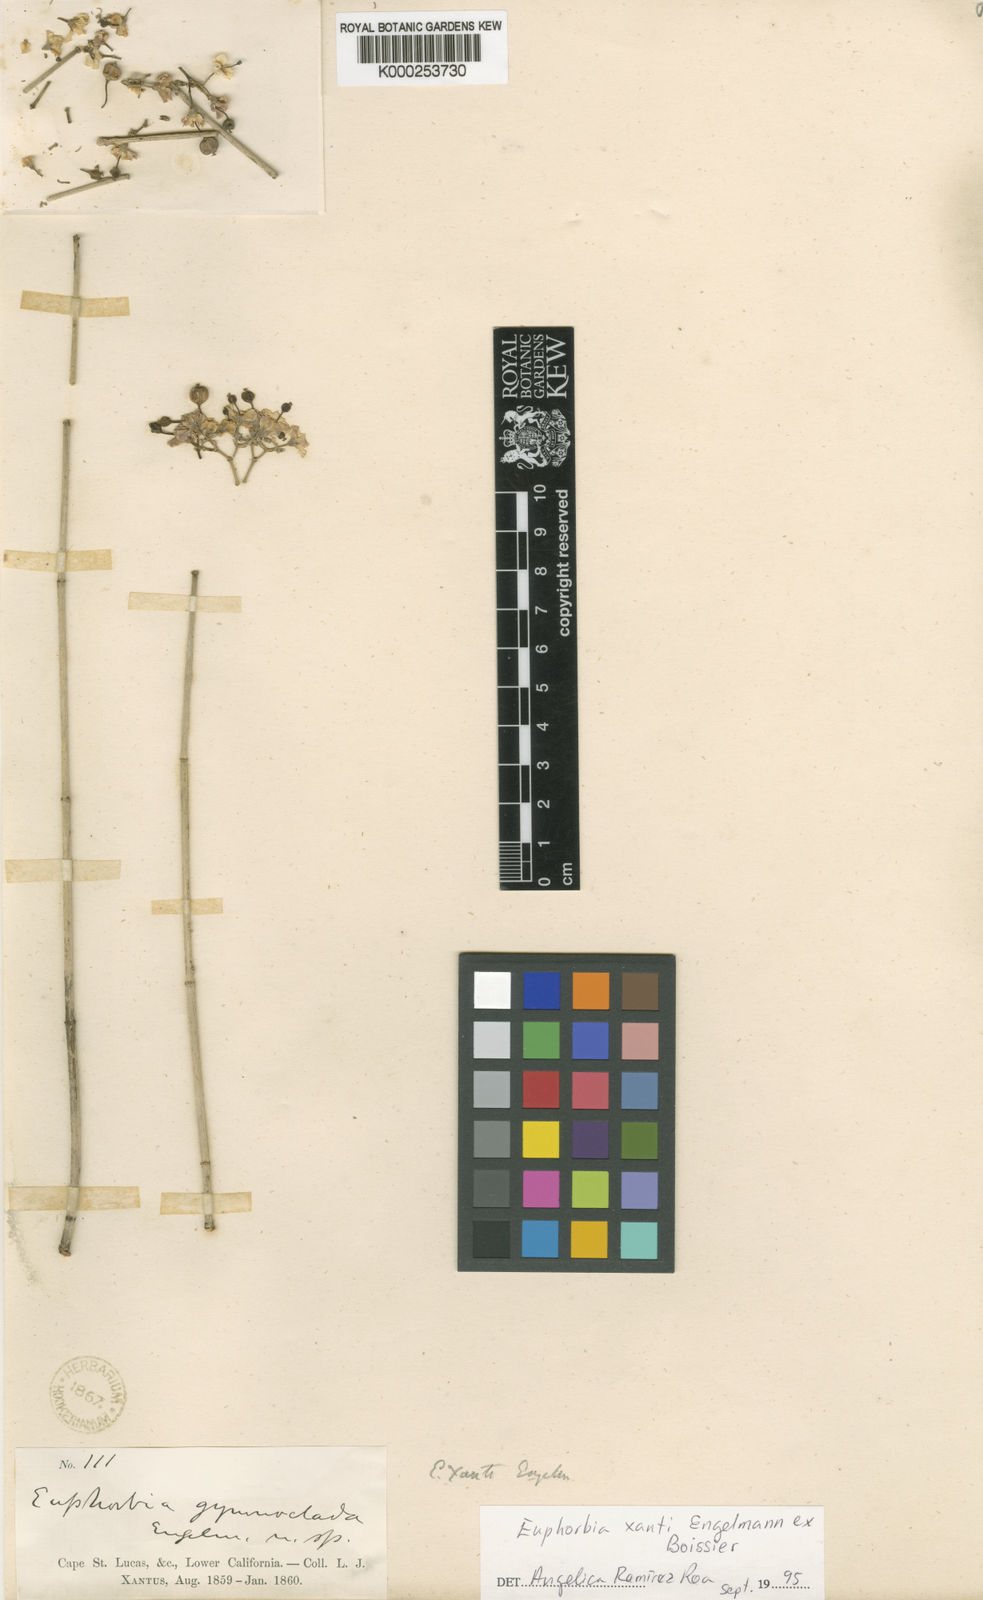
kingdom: Plantae
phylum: Tracheophyta
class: Magnoliopsida
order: Malpighiales
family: Euphorbiaceae
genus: Euphorbia
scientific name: Euphorbia xanti
